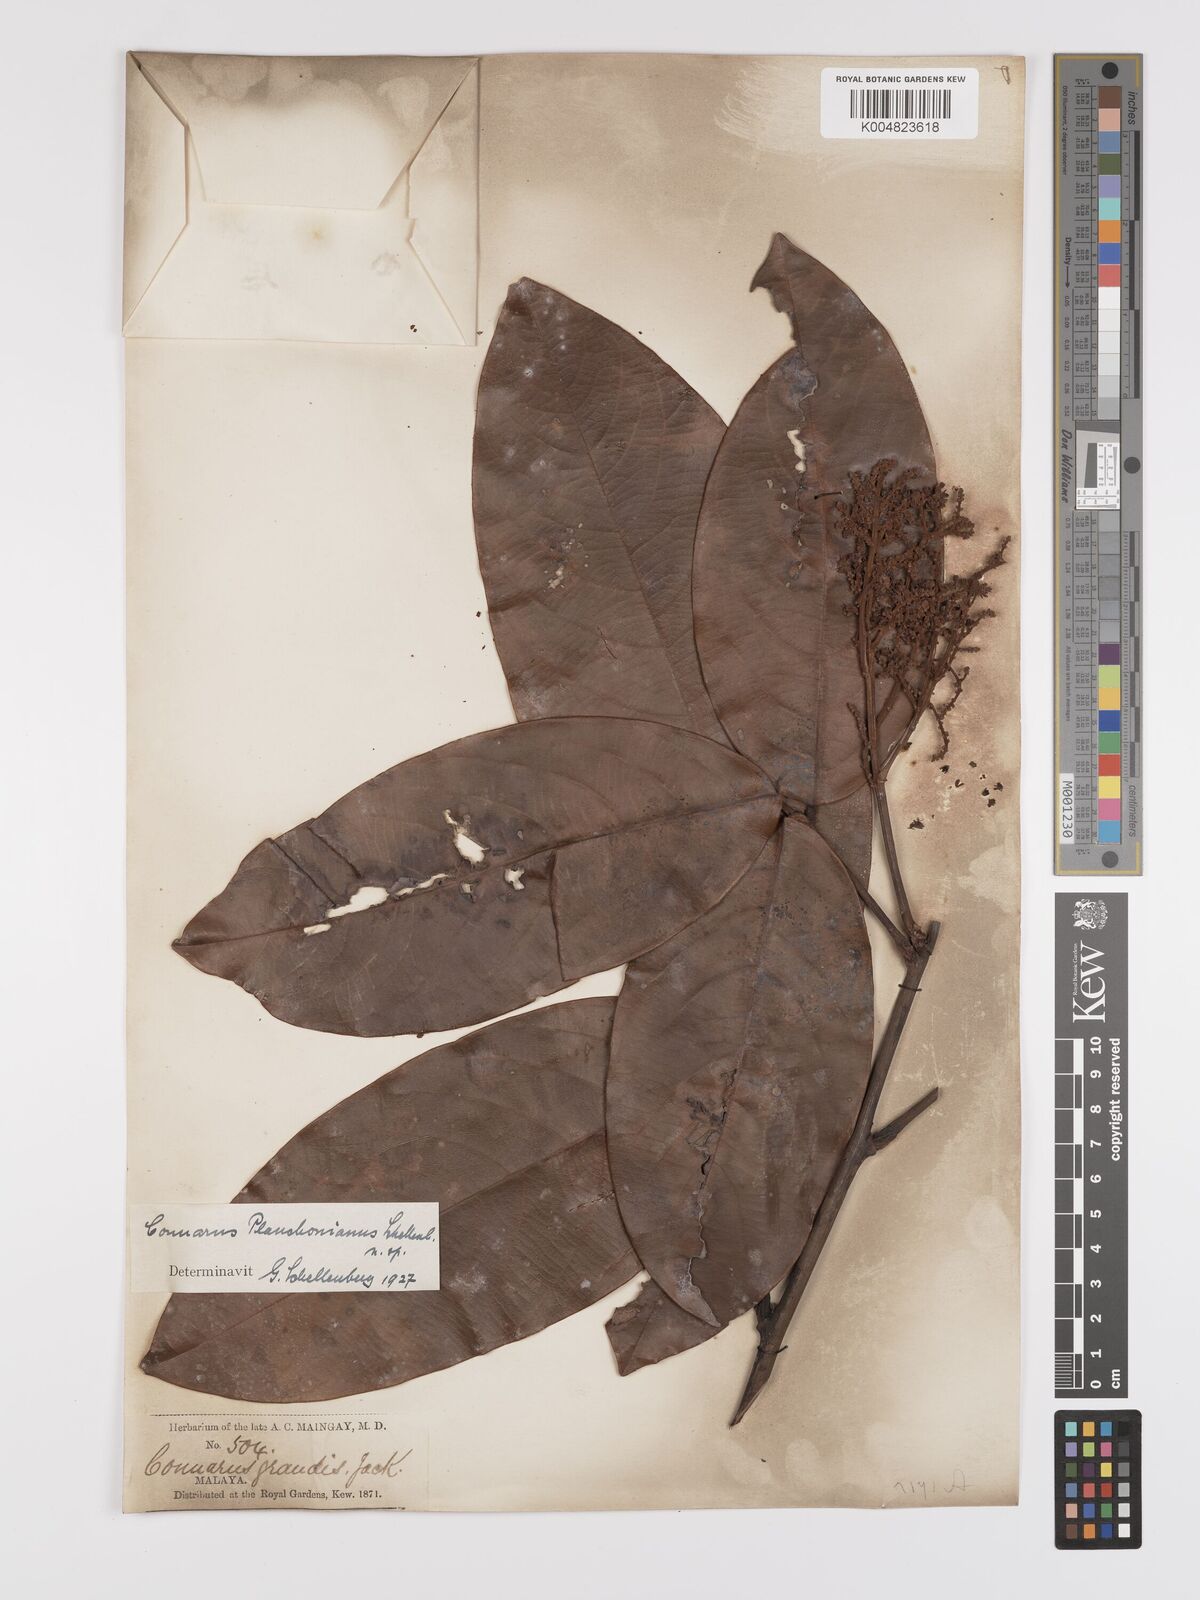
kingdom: Plantae
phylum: Tracheophyta
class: Magnoliopsida
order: Oxalidales
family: Connaraceae
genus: Connarus
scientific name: Connarus planchonianus
